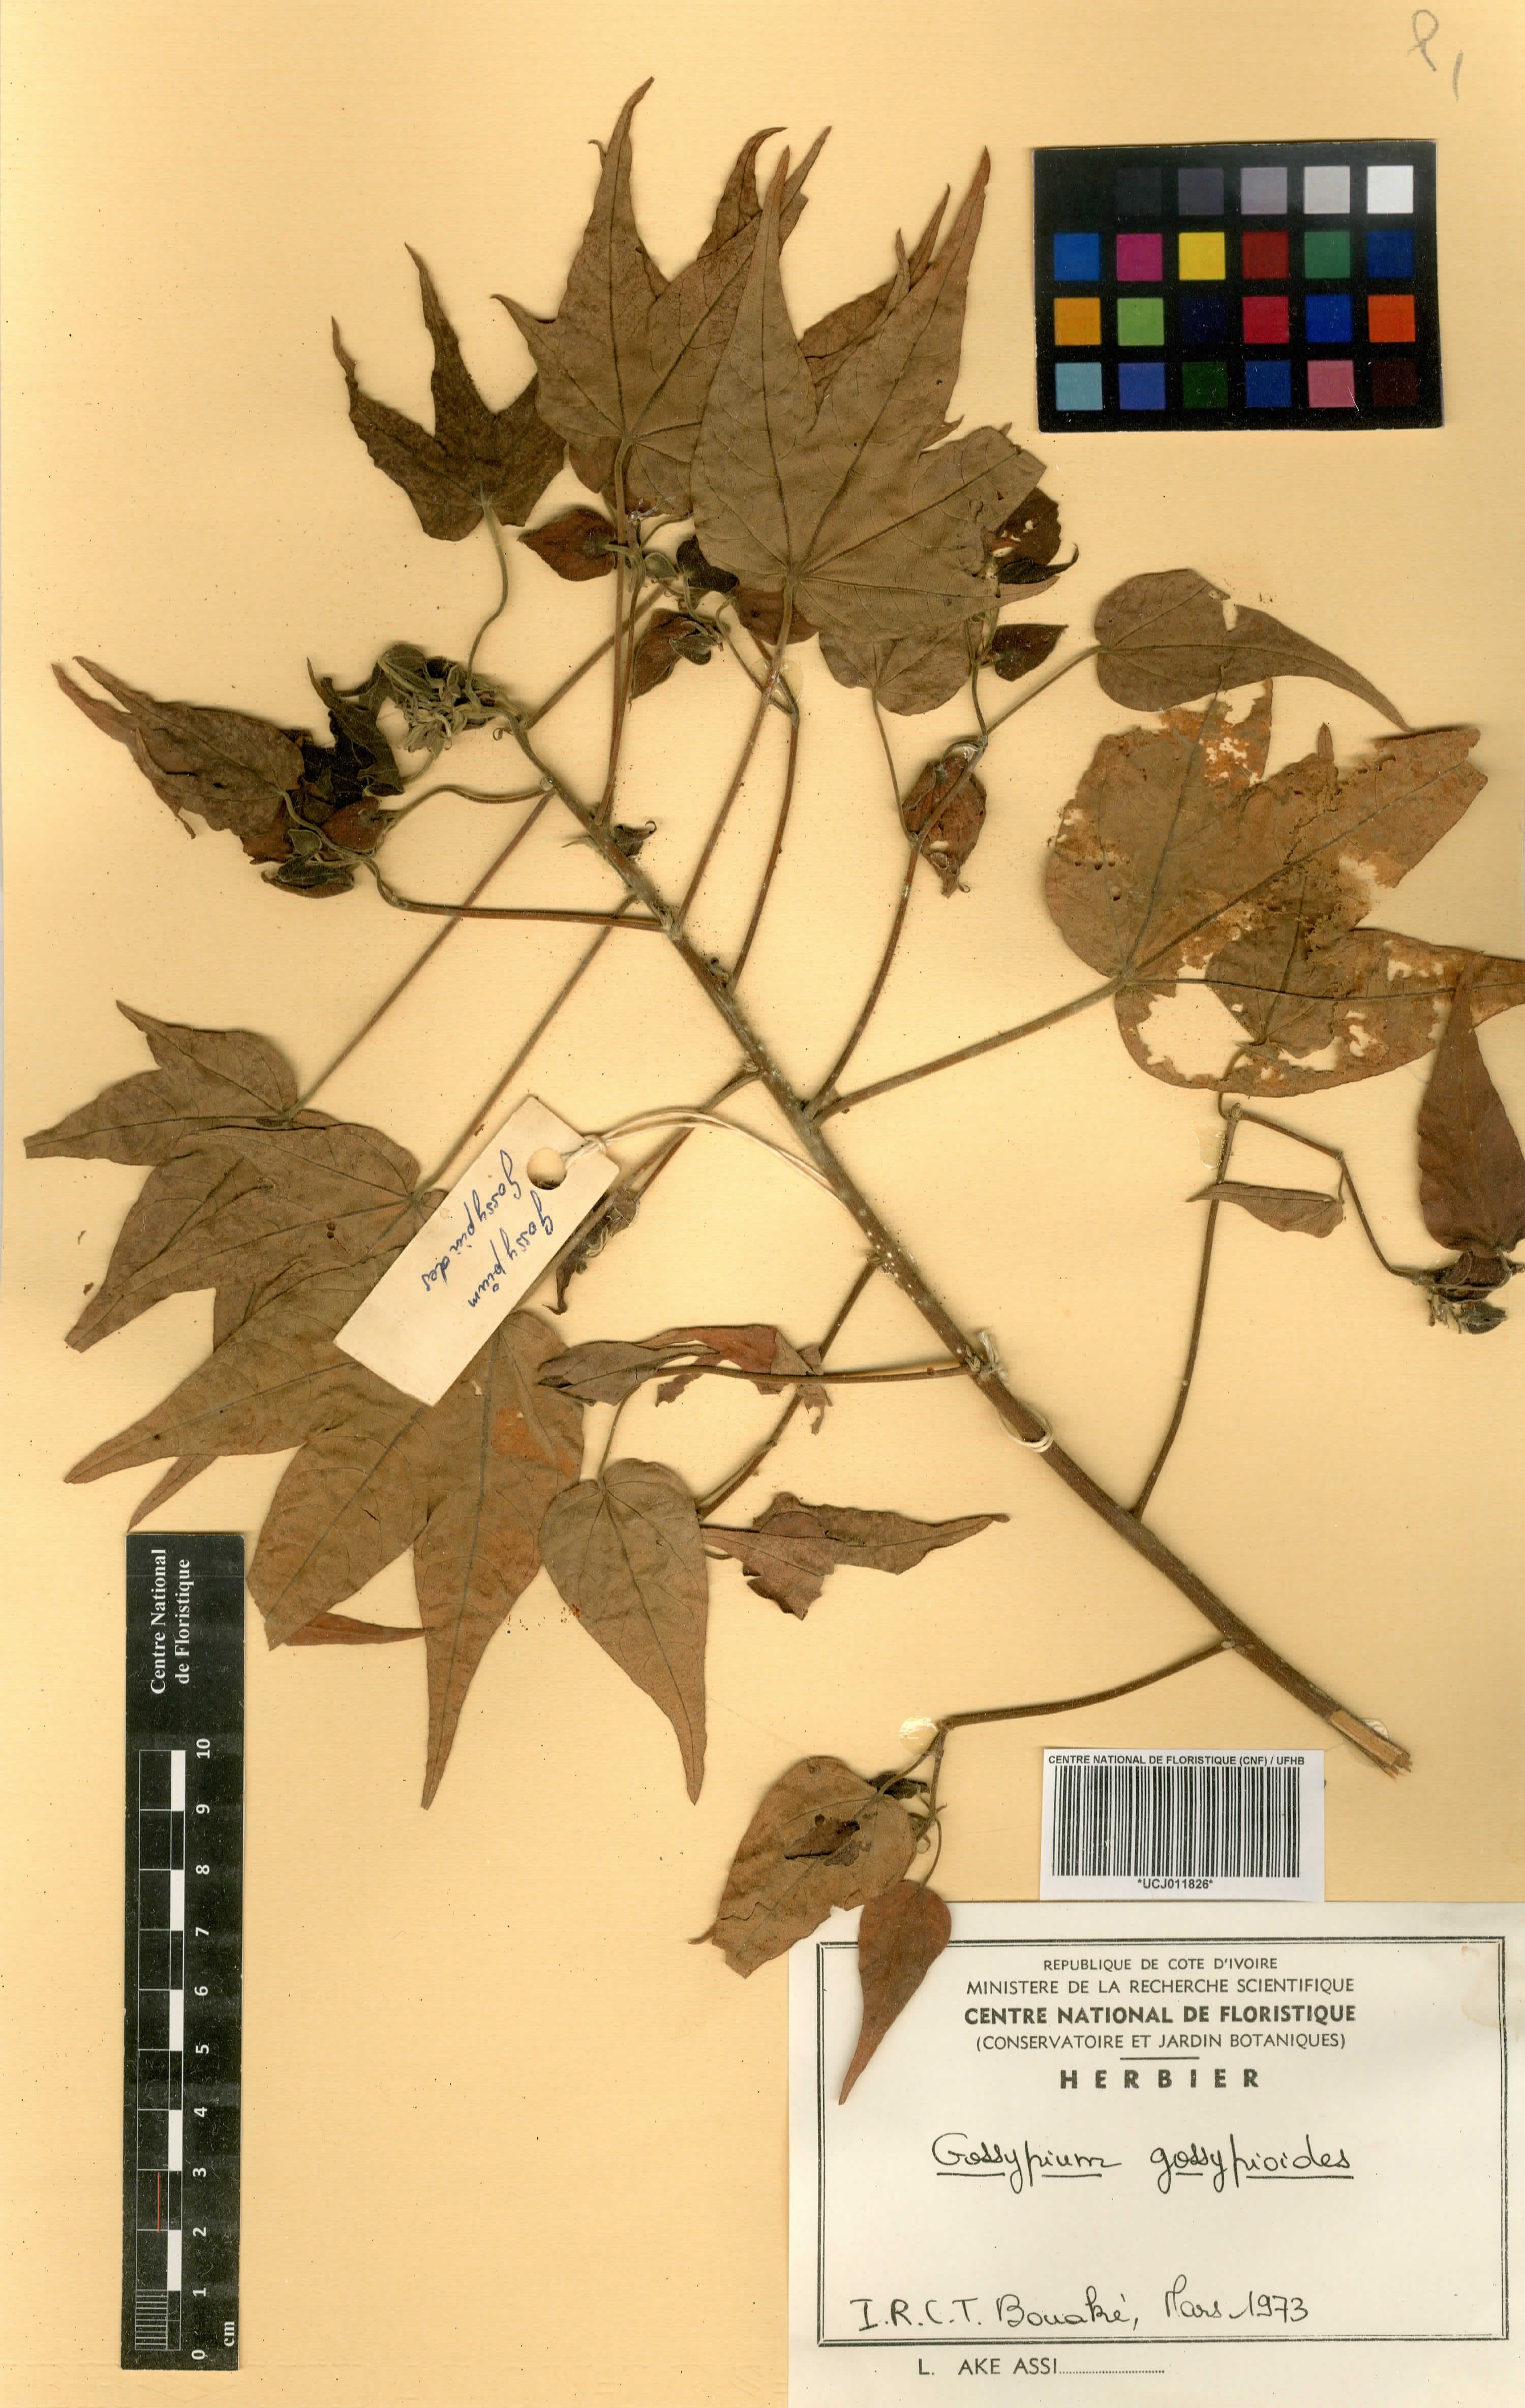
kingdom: Plantae
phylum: Tracheophyta
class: Magnoliopsida
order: Malvales
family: Malvaceae
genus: Gossypium
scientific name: Gossypium gossypioides
